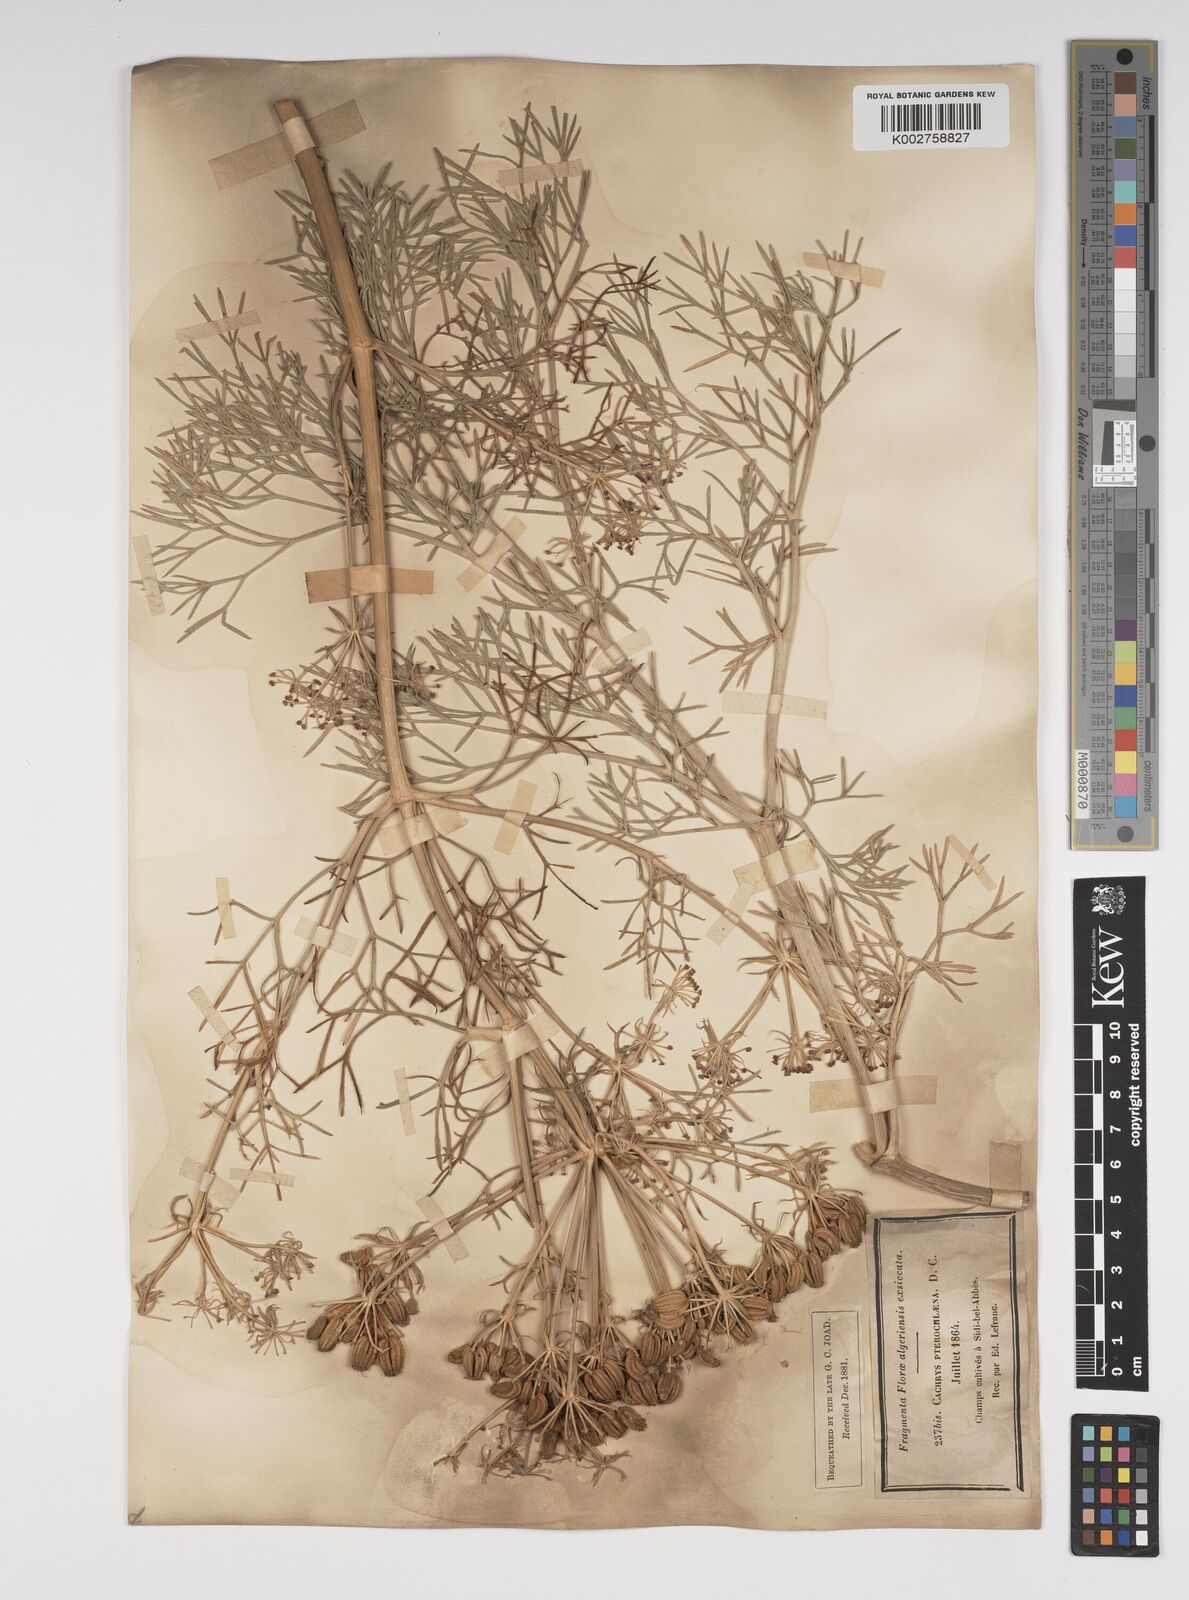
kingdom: Plantae
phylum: Tracheophyta
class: Magnoliopsida
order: Apiales
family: Apiaceae
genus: Cachrys
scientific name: Cachrys sicula
